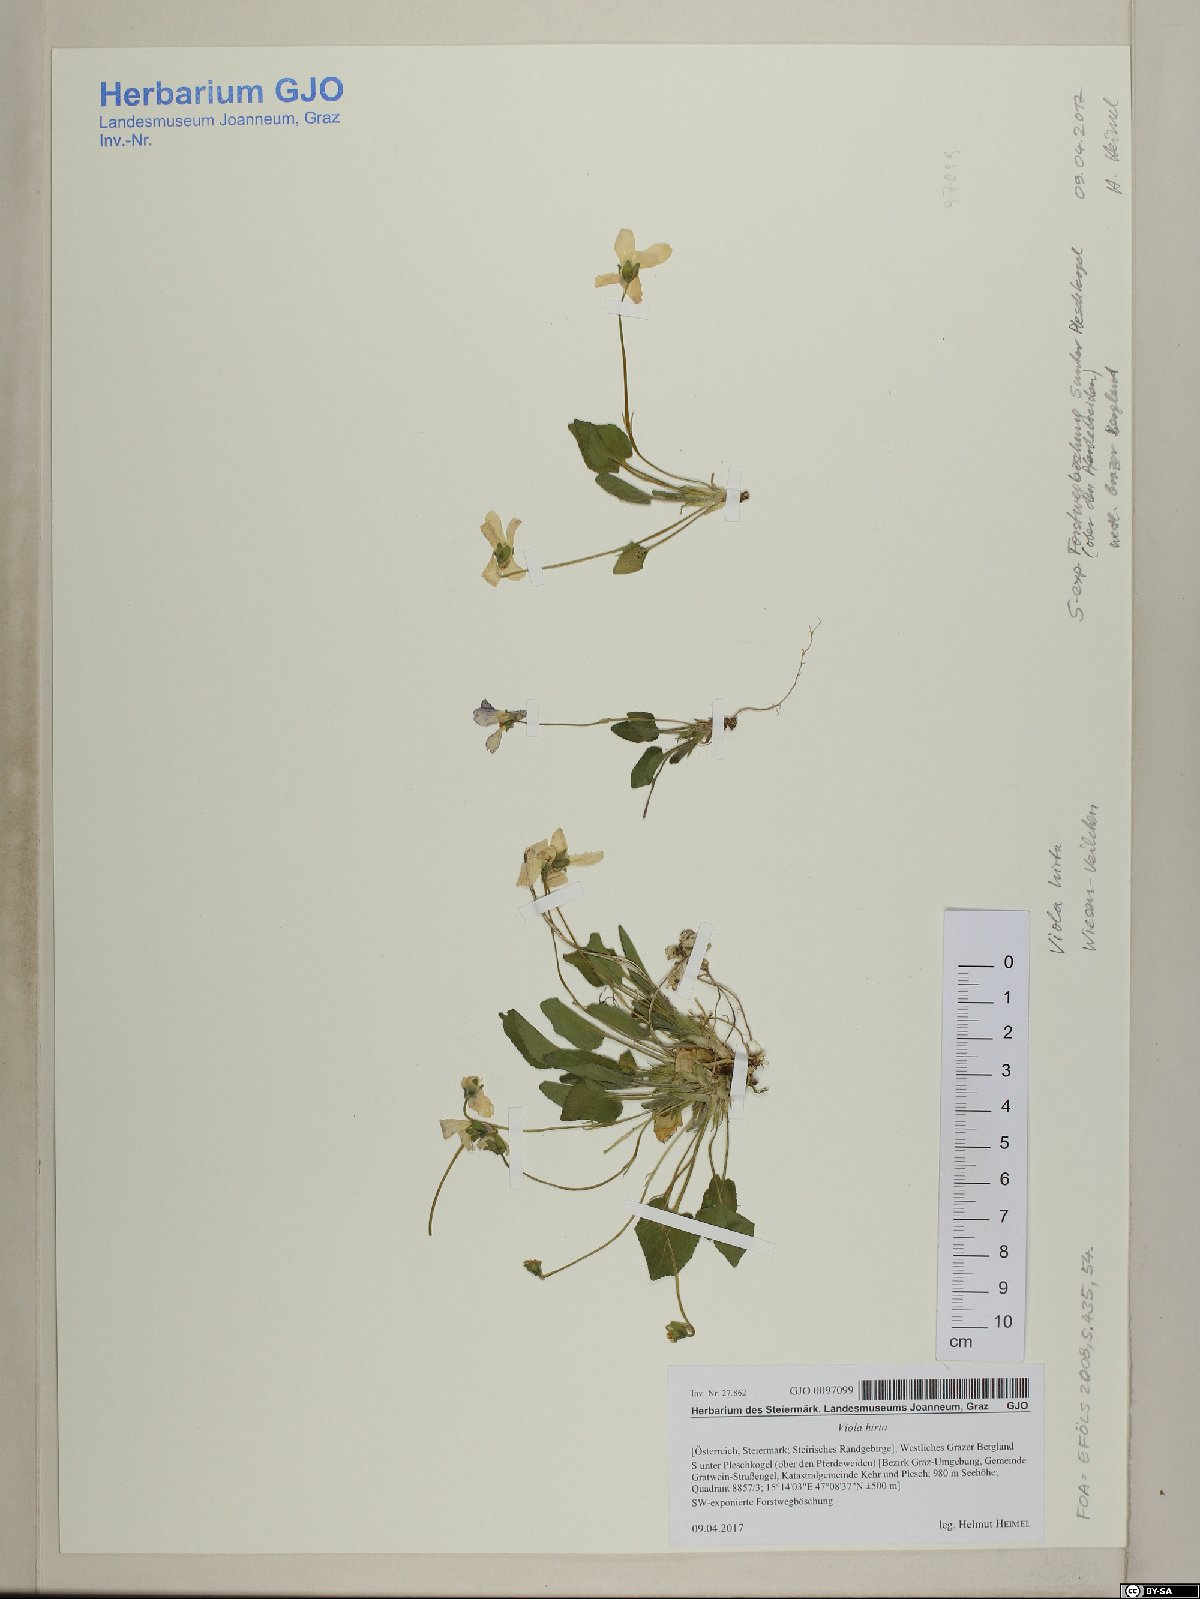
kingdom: Plantae
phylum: Tracheophyta
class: Magnoliopsida
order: Malpighiales
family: Violaceae
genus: Viola
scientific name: Viola hirta
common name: Hairy violet
